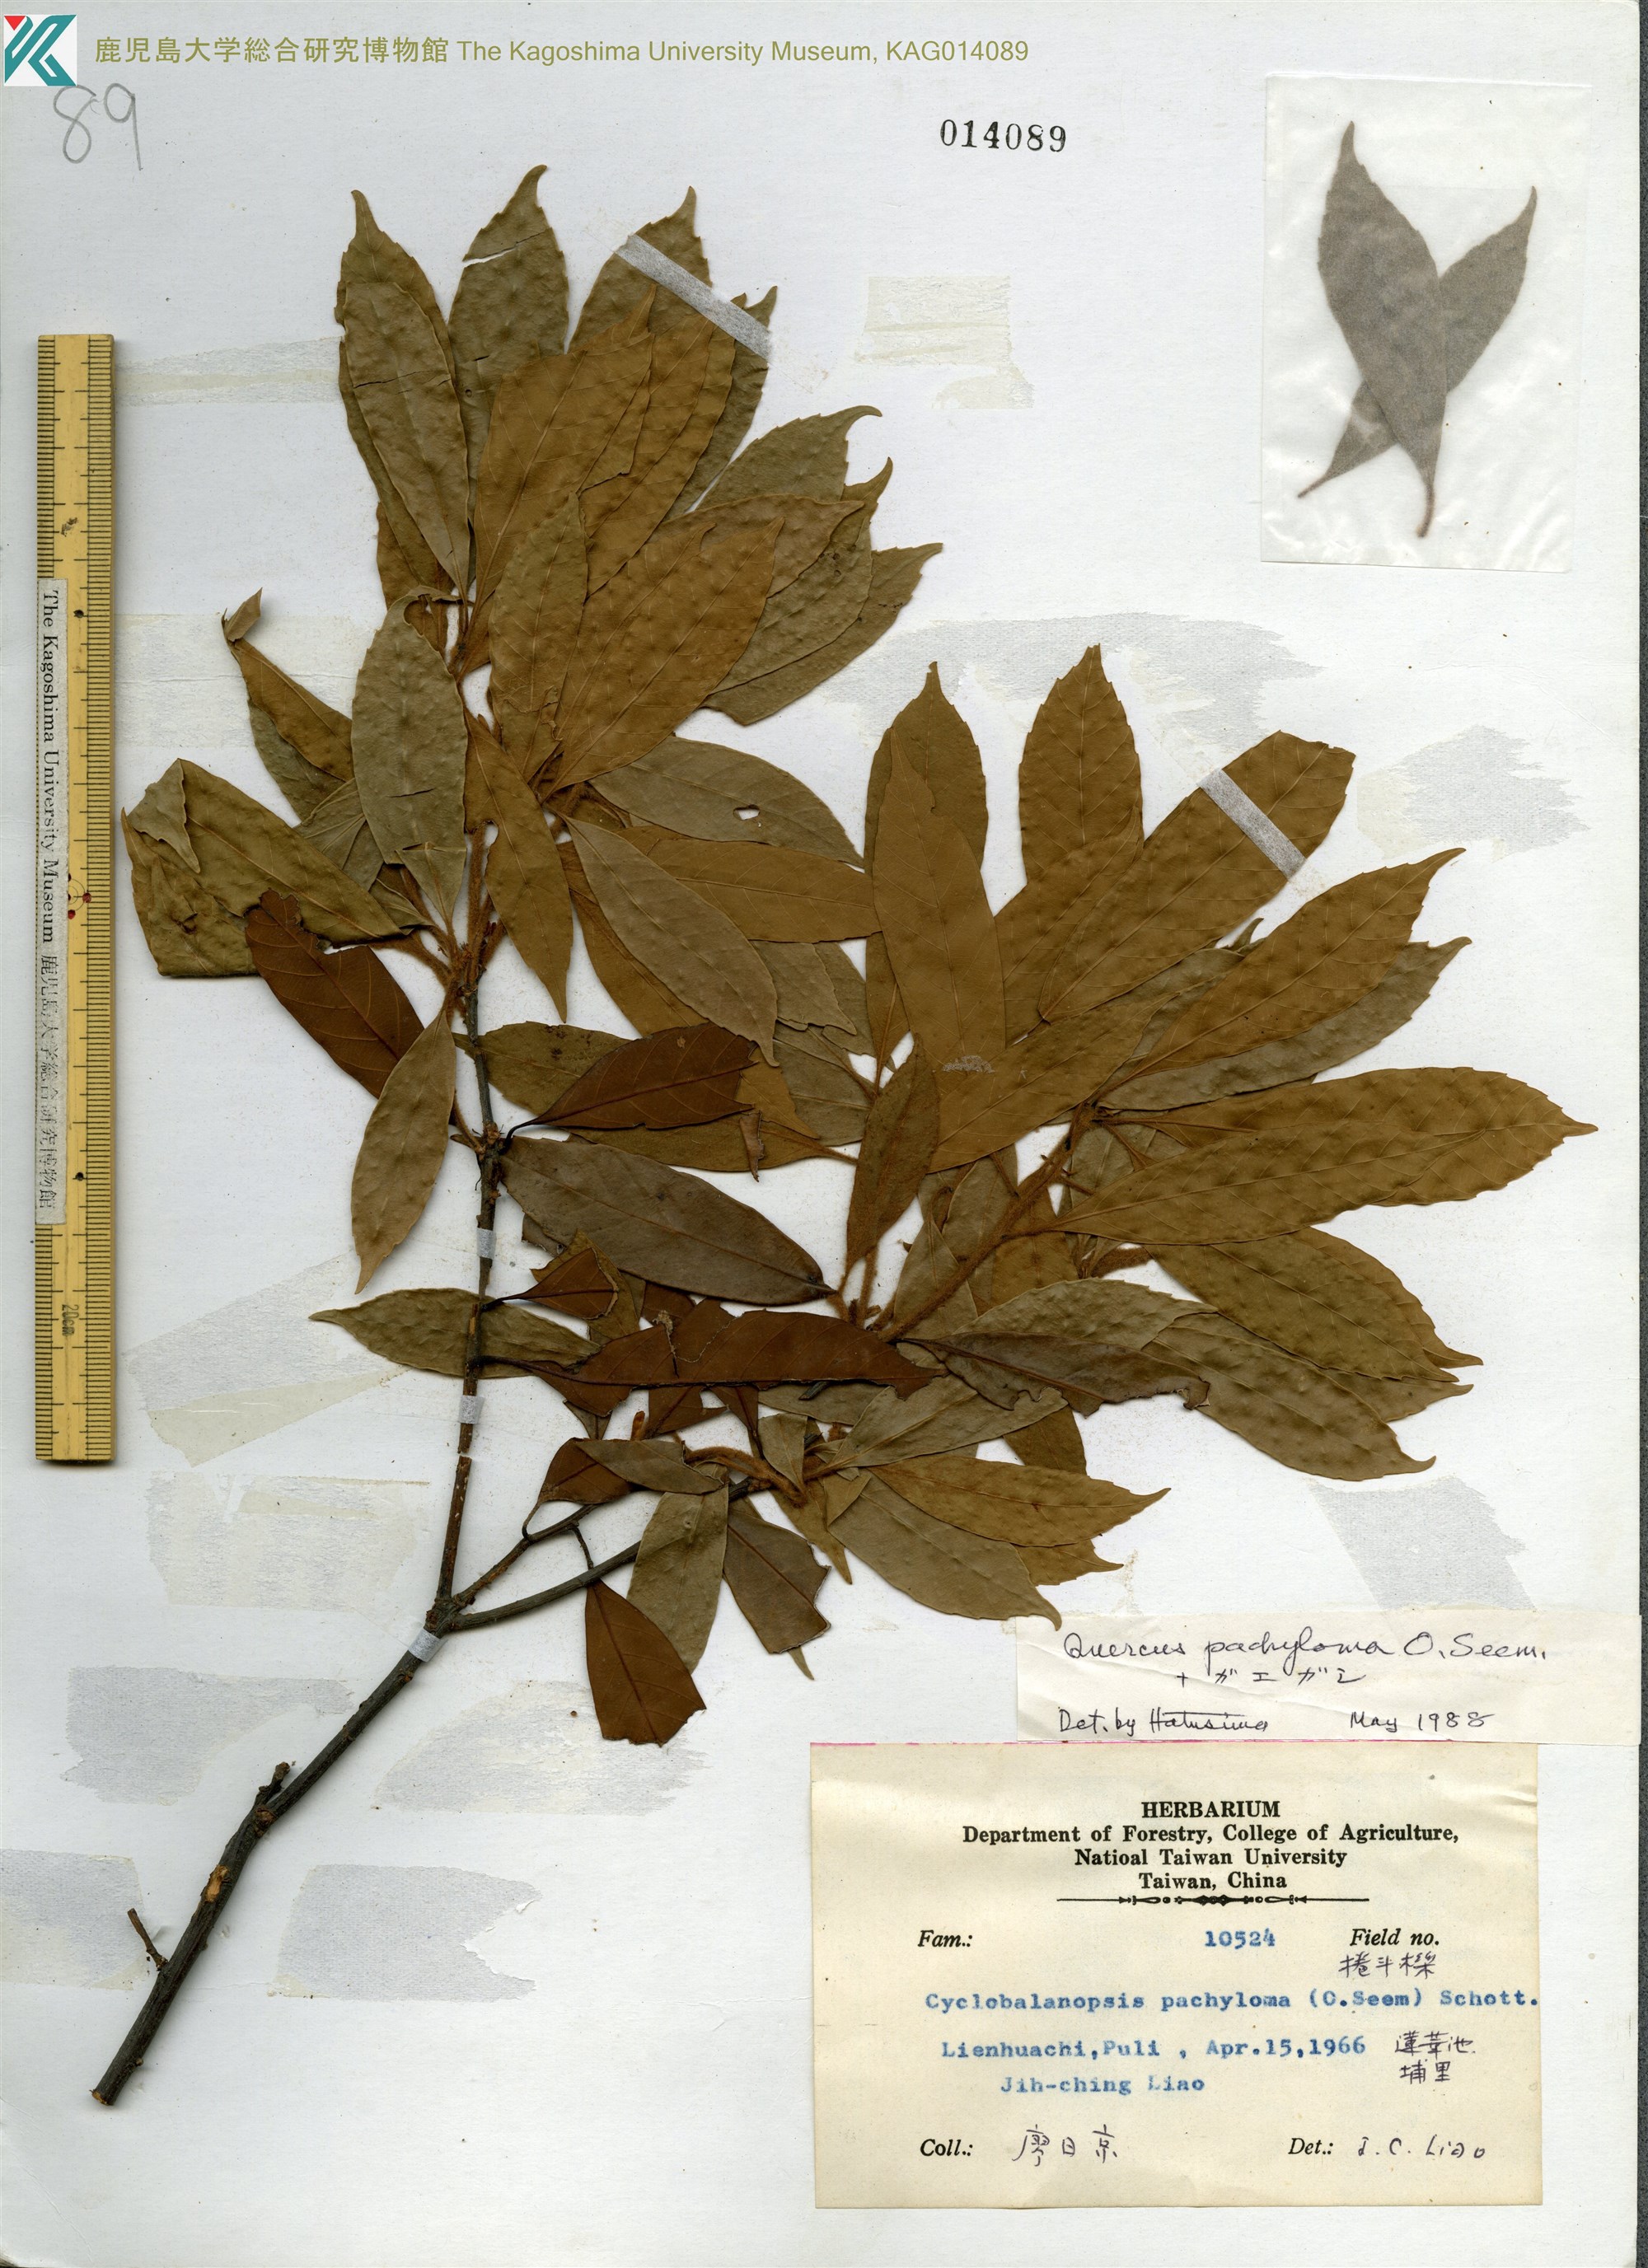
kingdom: Plantae
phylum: Tracheophyta
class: Magnoliopsida
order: Fagales
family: Fagaceae
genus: Quercus
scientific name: Quercus pachyloma
